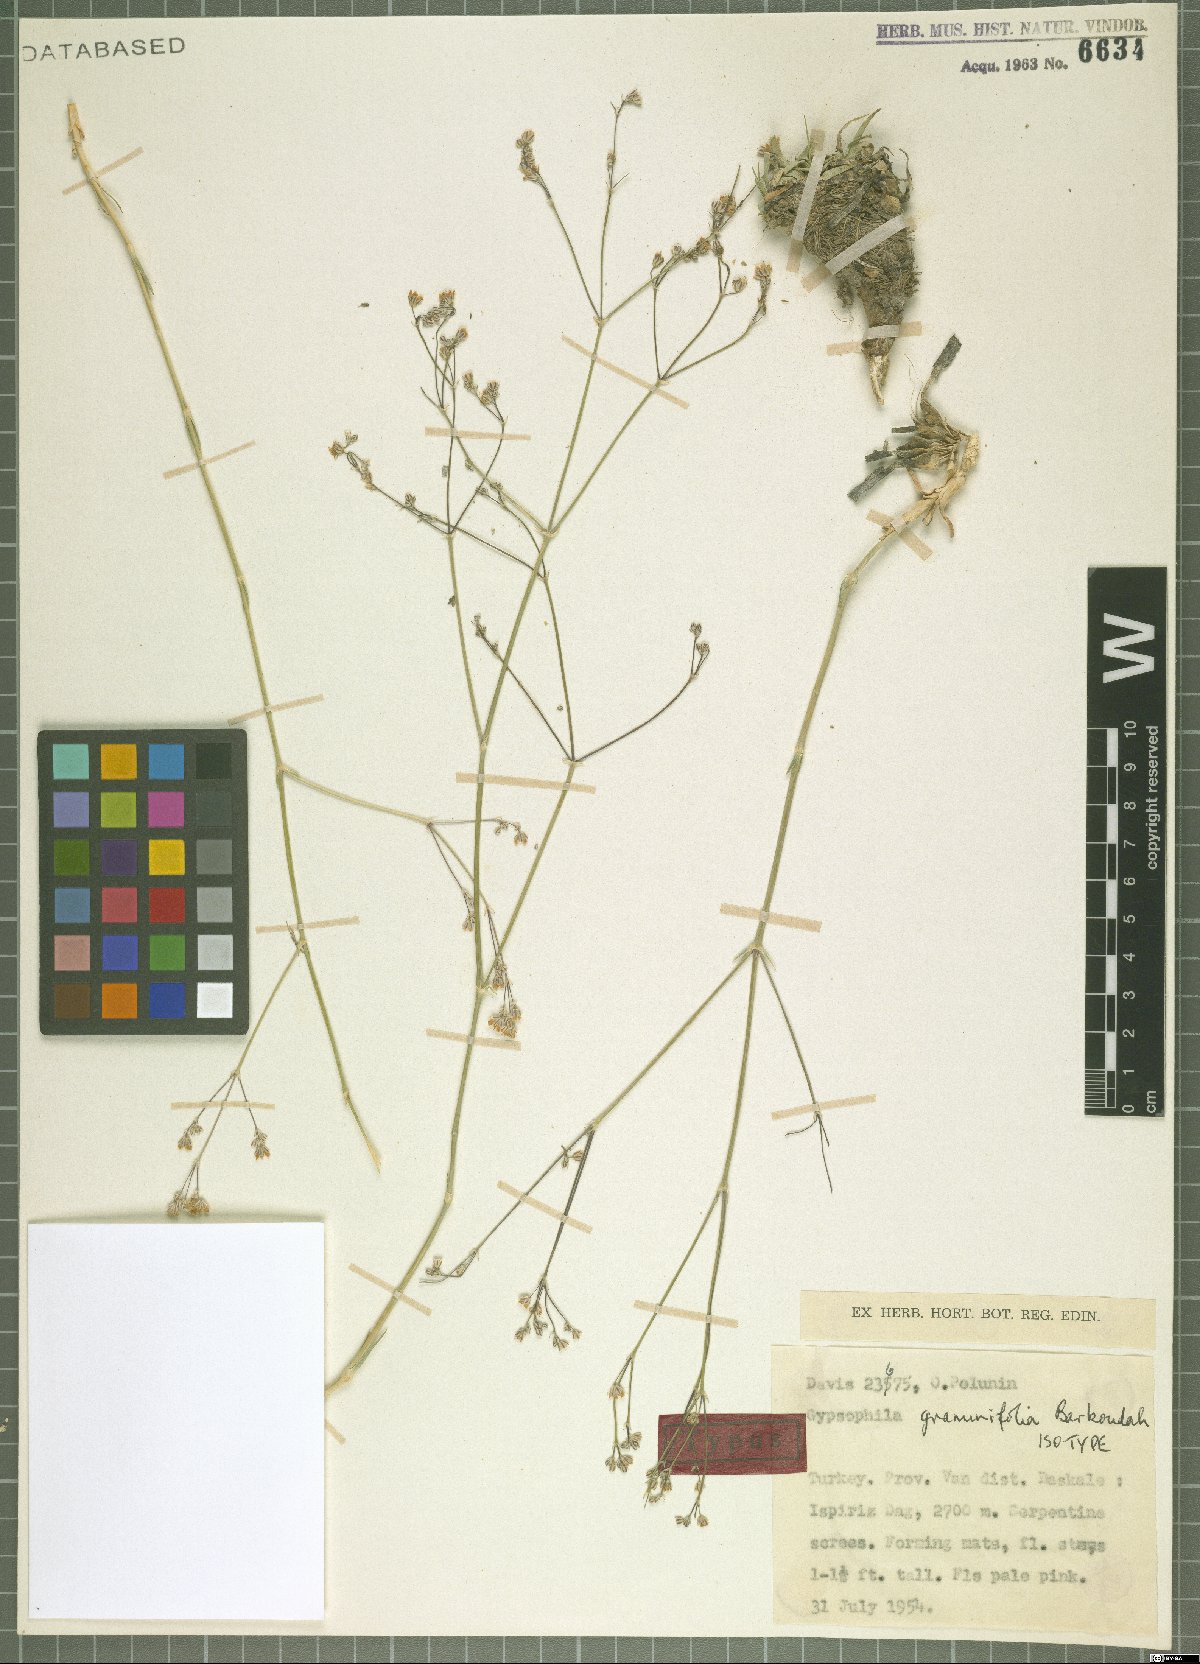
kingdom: Plantae
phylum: Tracheophyta
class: Magnoliopsida
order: Caryophyllales
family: Caryophyllaceae
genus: Gypsophila
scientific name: Gypsophila graminifolia
